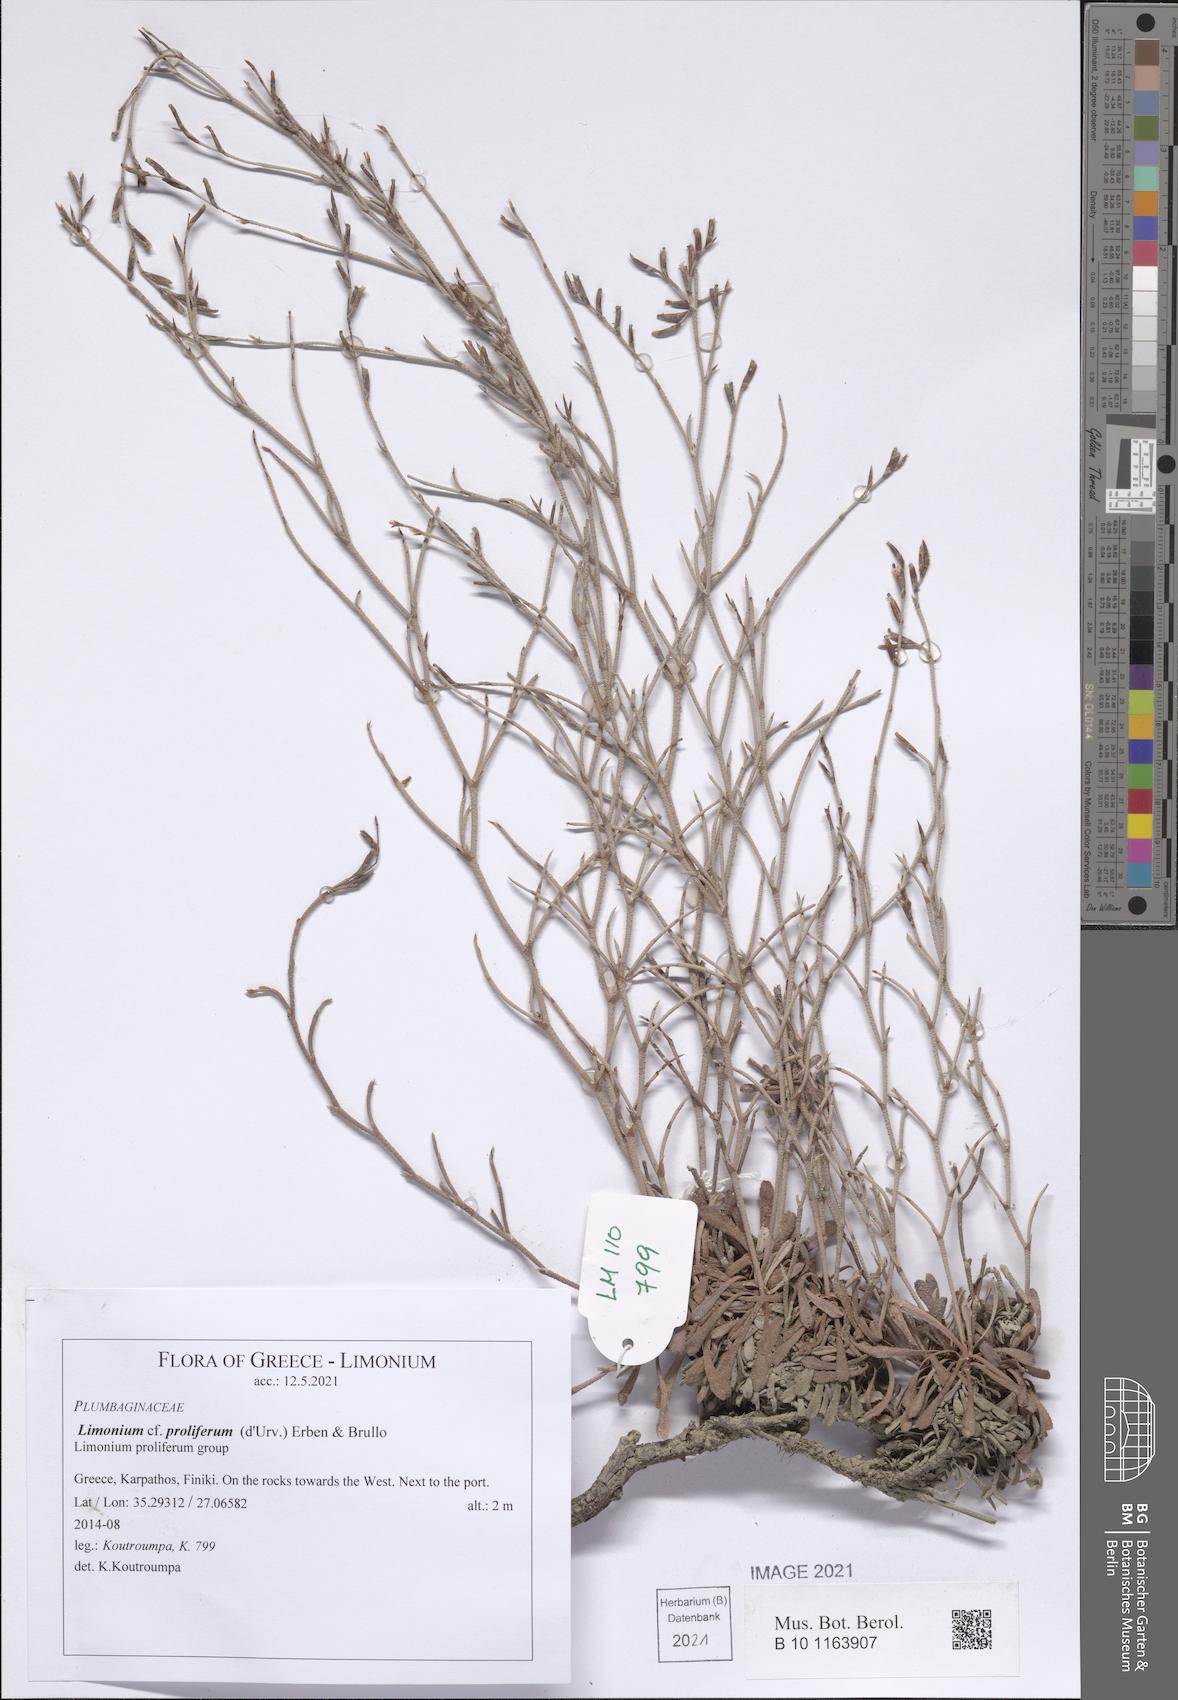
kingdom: Plantae
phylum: Tracheophyta
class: Magnoliopsida
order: Caryophyllales
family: Plumbaginaceae
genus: Limonium
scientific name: Limonium proliferum
